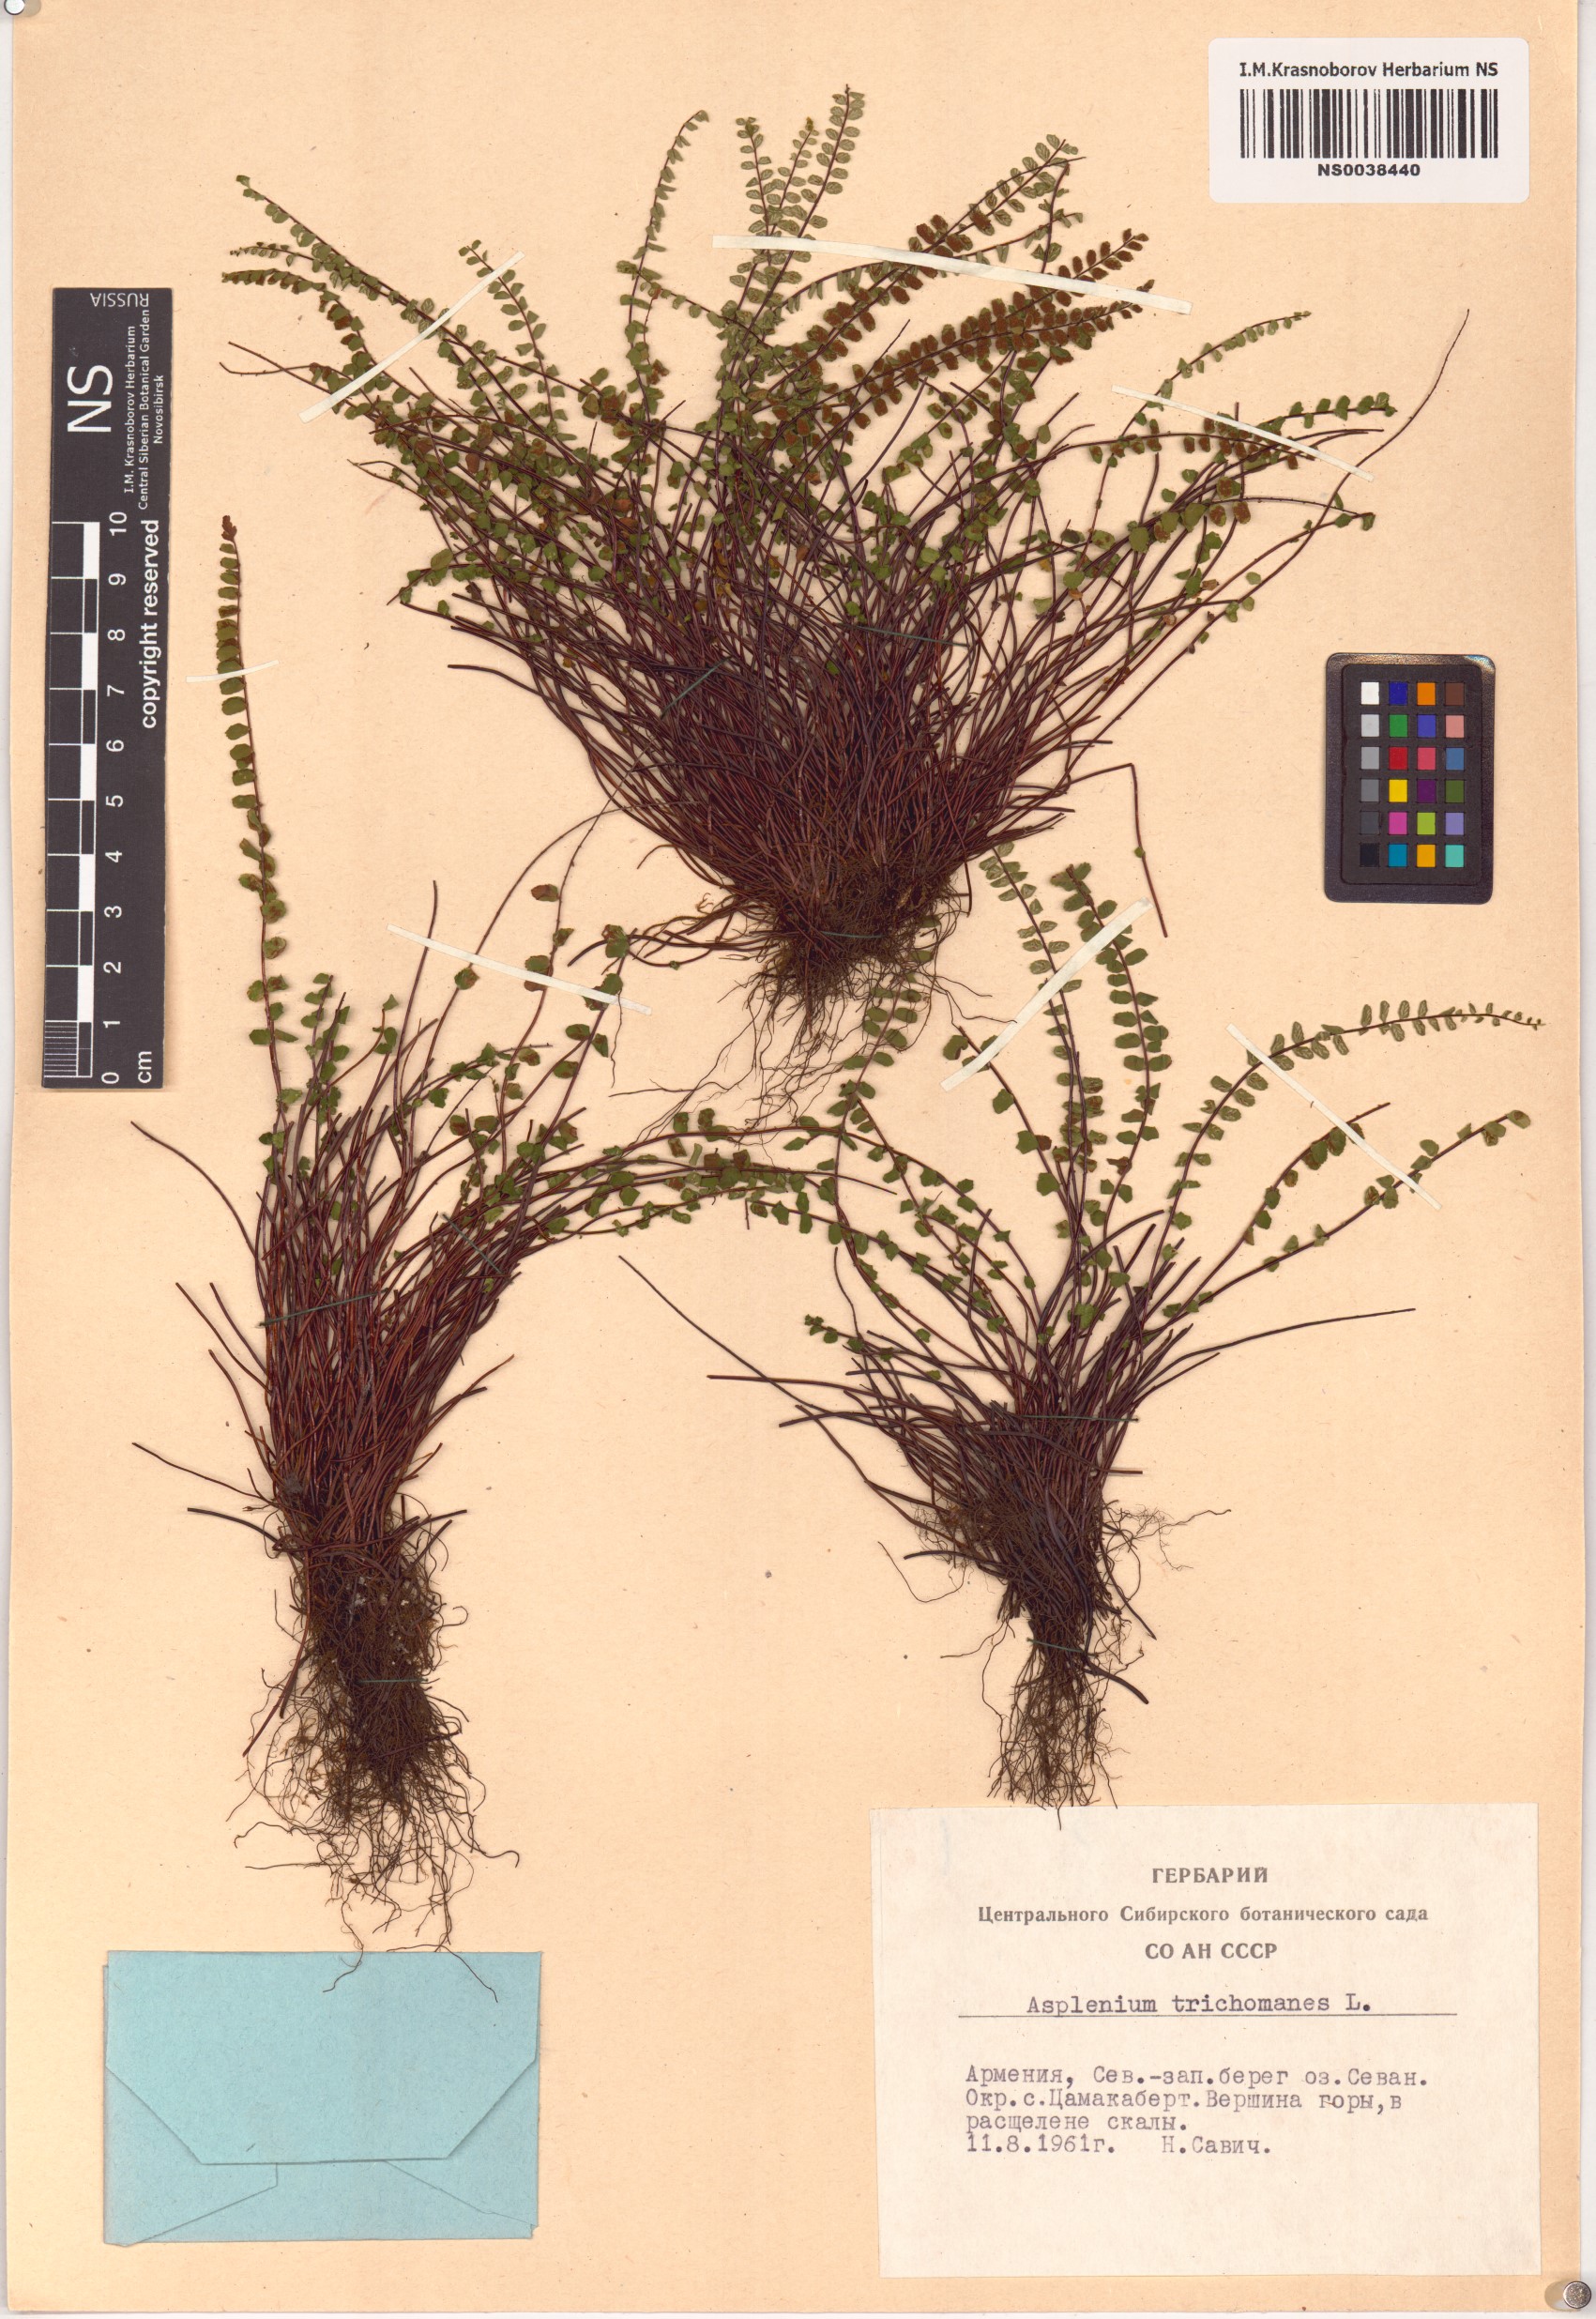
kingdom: Plantae
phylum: Tracheophyta
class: Polypodiopsida
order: Polypodiales
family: Aspleniaceae
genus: Asplenium
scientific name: Asplenium trichomanes
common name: Maidenhair spleenwort
